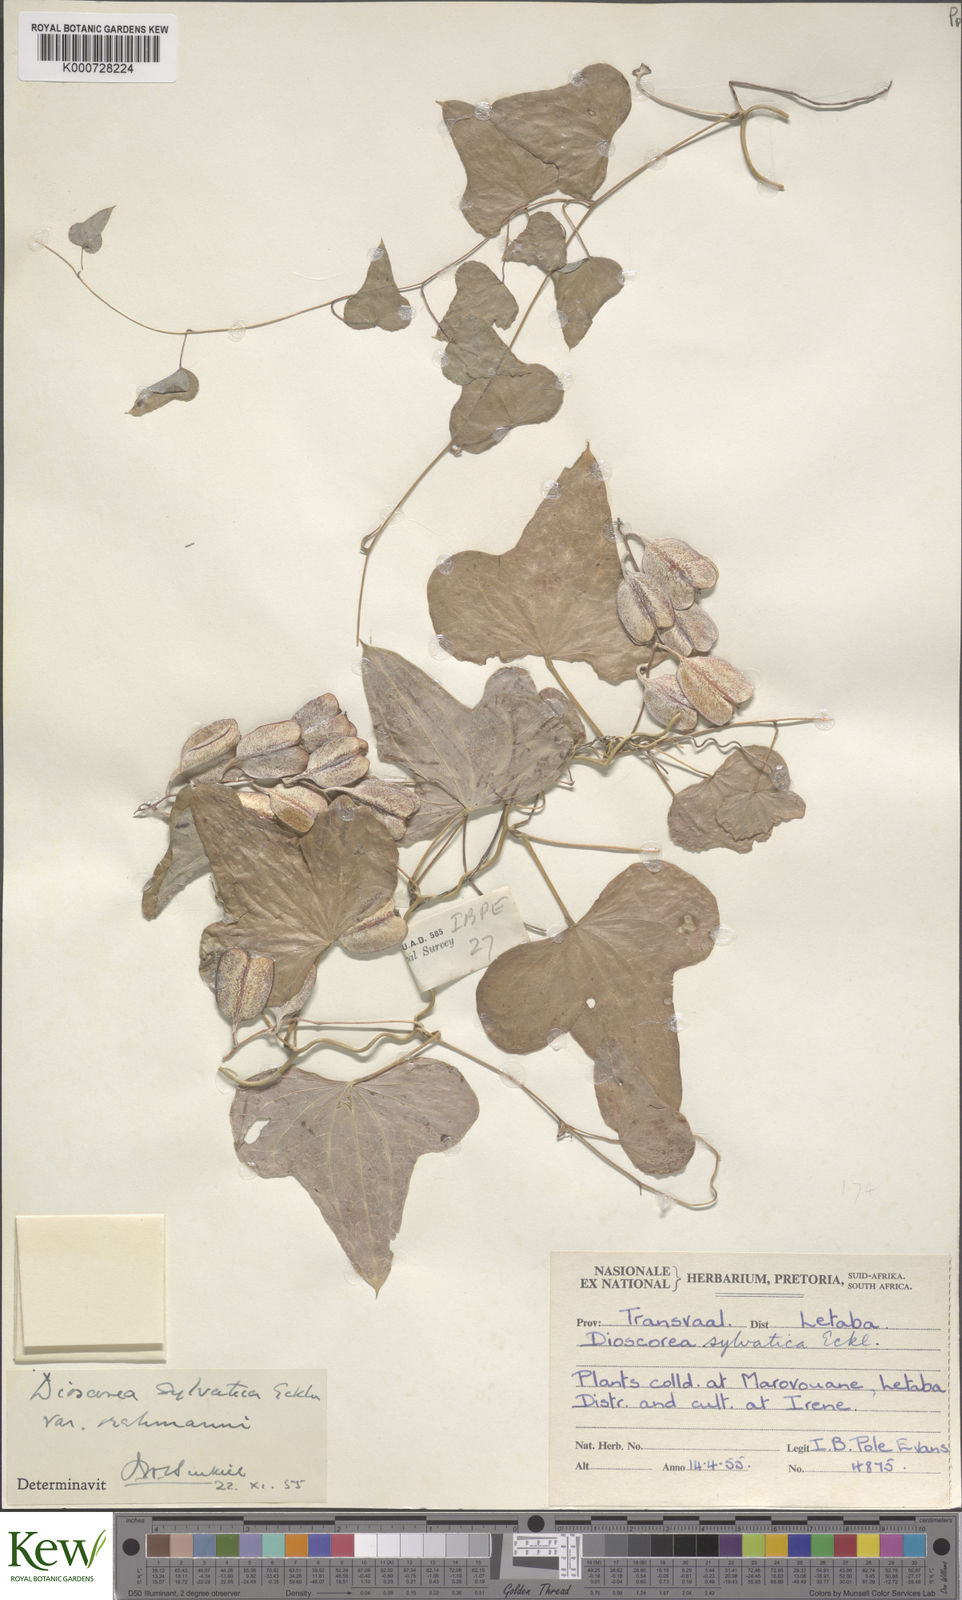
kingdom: Plantae
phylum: Tracheophyta
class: Liliopsida
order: Dioscoreales
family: Dioscoreaceae
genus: Dioscorea
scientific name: Dioscorea sylvatica
